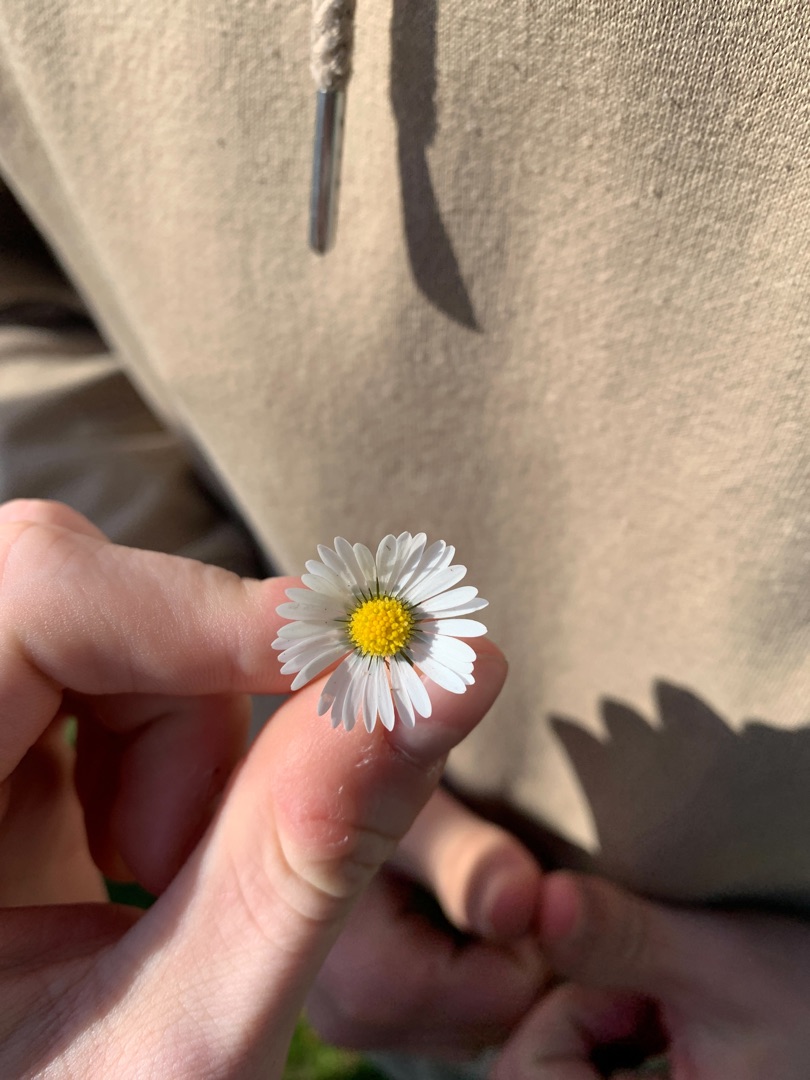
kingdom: Plantae
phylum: Tracheophyta
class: Magnoliopsida
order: Asterales
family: Asteraceae
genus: Bellis
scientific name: Bellis perennis
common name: Tusindfryd
